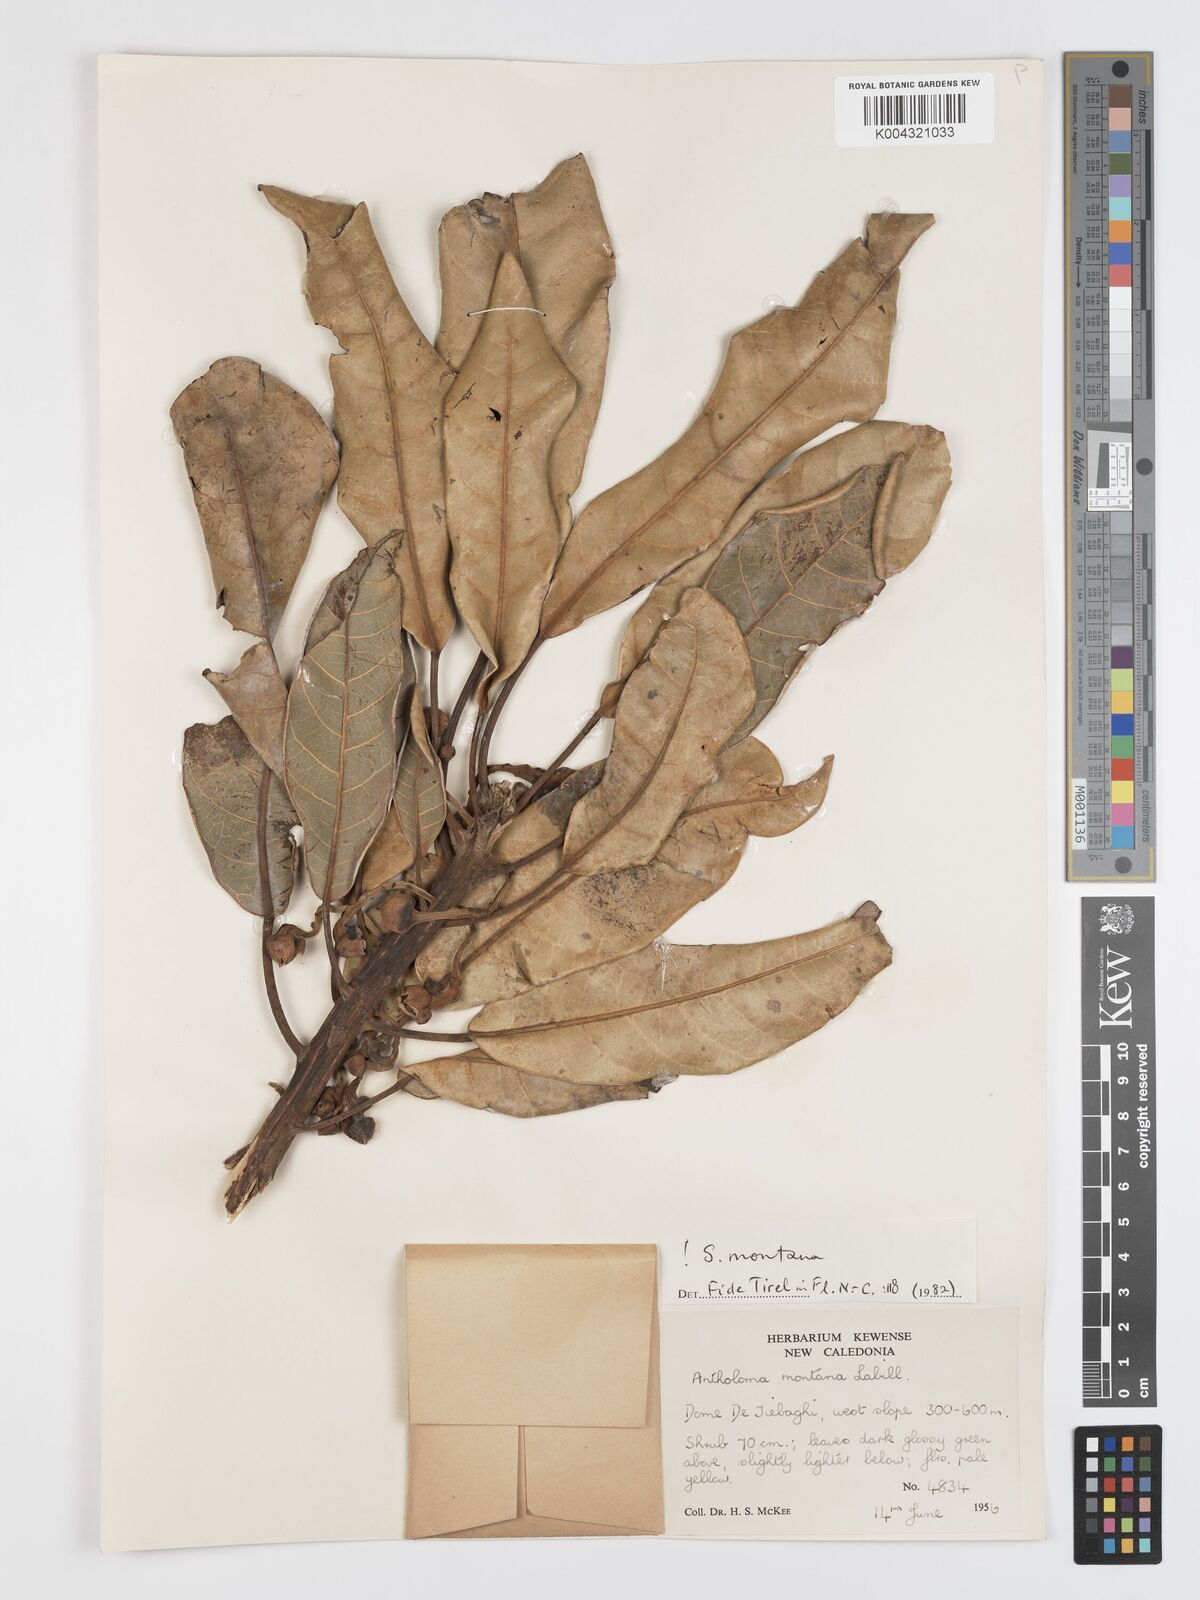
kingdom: Plantae
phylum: Tracheophyta
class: Magnoliopsida
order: Oxalidales
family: Elaeocarpaceae
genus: Sloanea
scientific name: Sloanea montana
